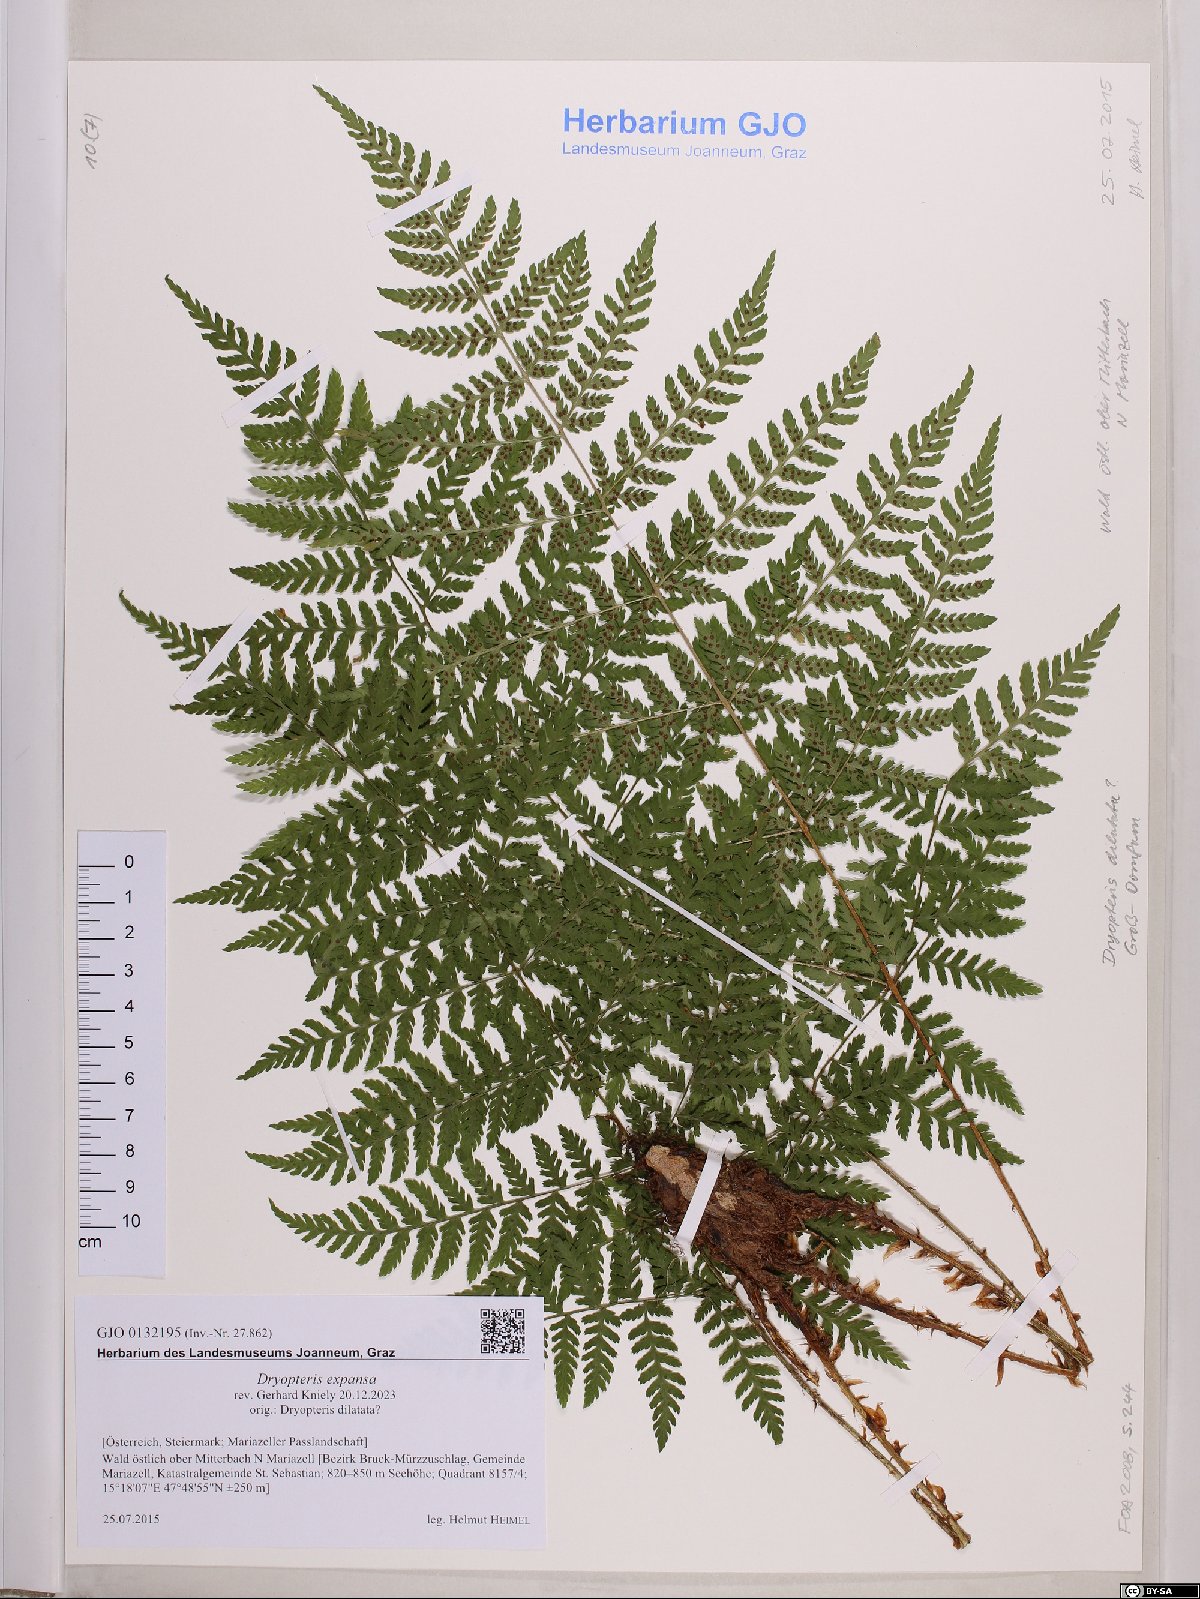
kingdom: Plantae
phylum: Tracheophyta
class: Polypodiopsida
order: Polypodiales
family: Dryopteridaceae
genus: Dryopteris
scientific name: Dryopteris expansa
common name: Northern buckler fern
